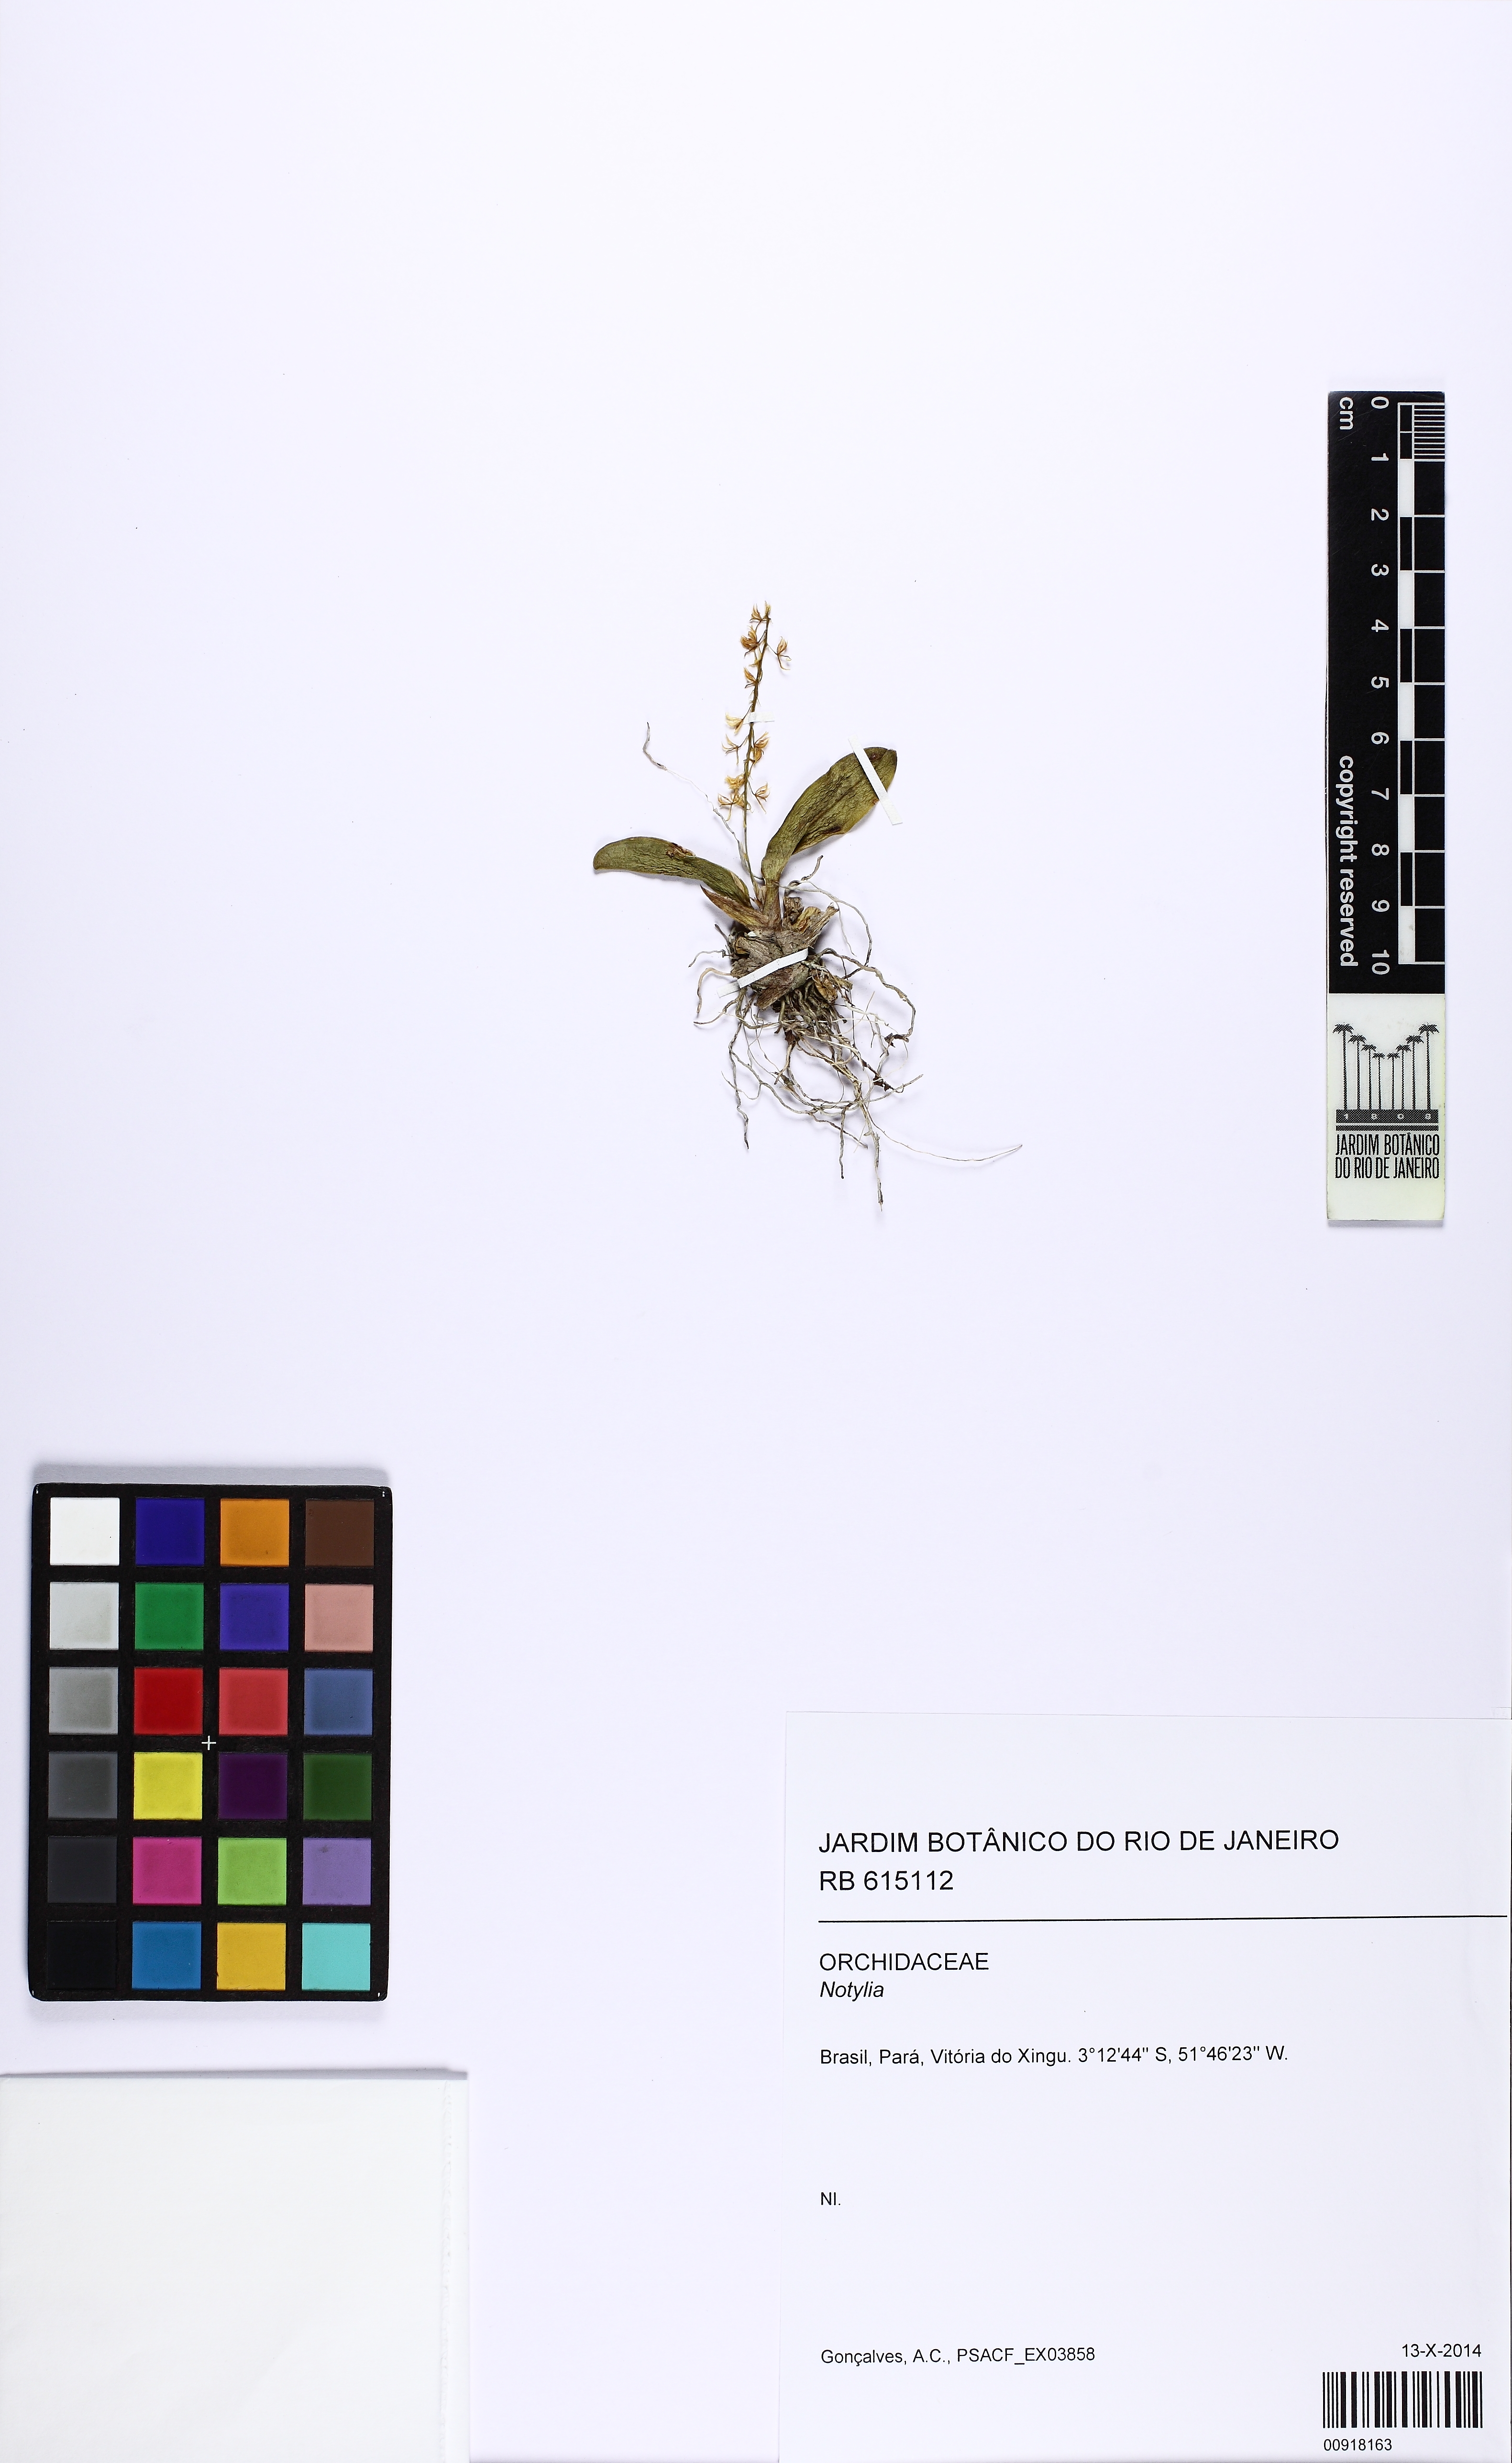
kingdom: Plantae
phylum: Tracheophyta
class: Liliopsida
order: Asparagales
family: Orchidaceae
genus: Notylia
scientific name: Notylia yauaperyensis
